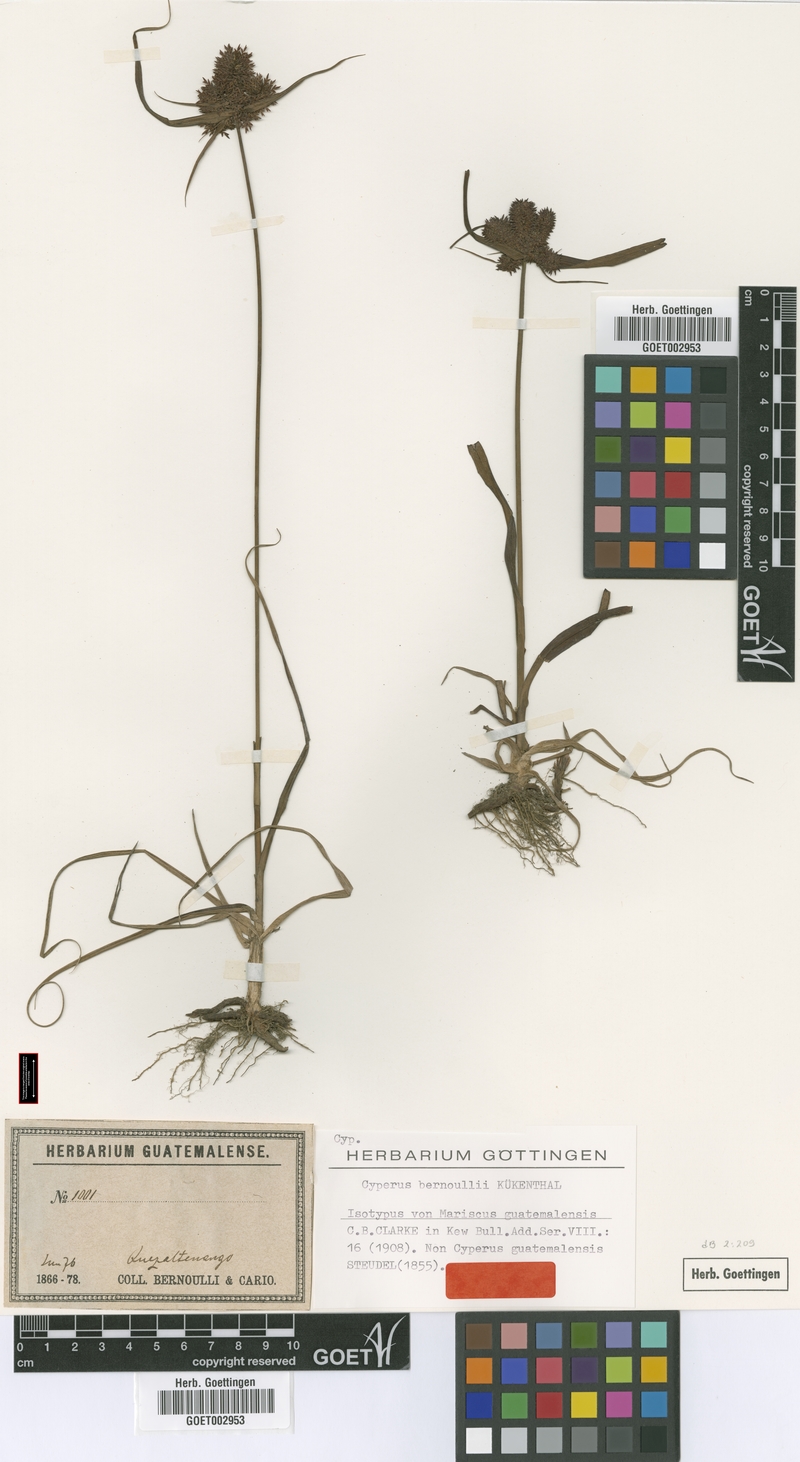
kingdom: Plantae
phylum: Tracheophyta
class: Liliopsida
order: Poales
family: Cyperaceae
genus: Cyperus
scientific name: Cyperus manimae
